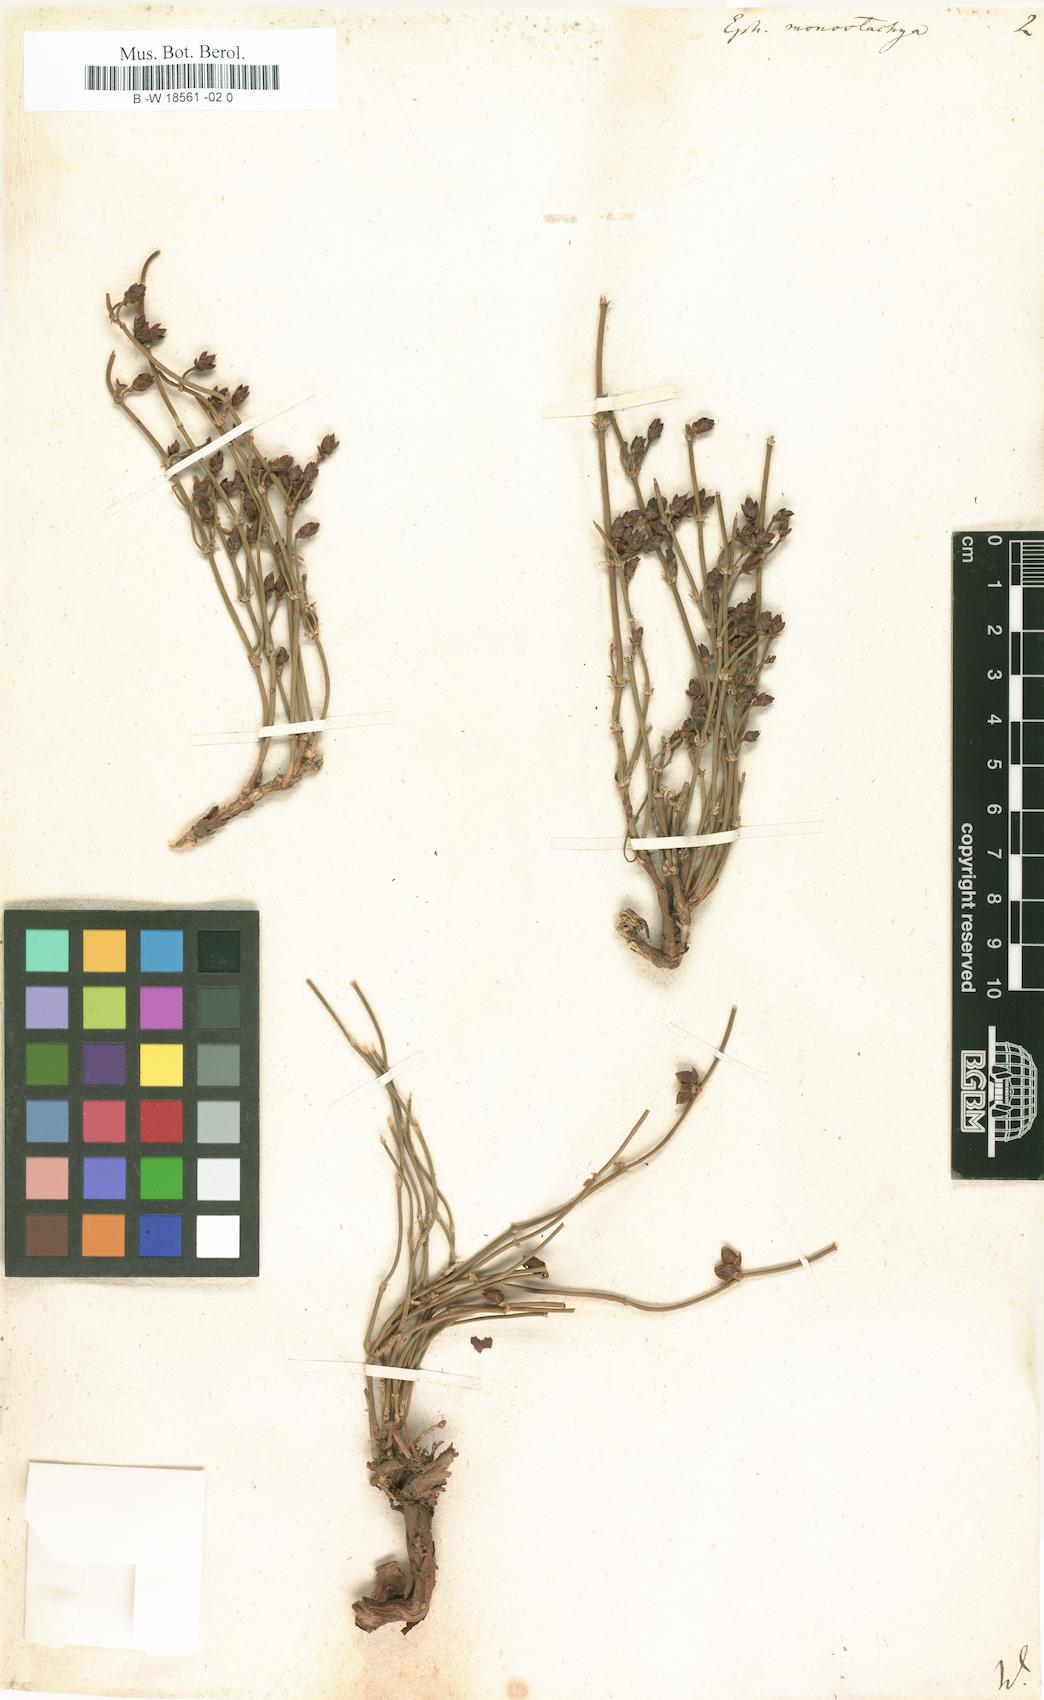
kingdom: Plantae
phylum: Tracheophyta
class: Gnetopsida
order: Ephedrales
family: Ephedraceae
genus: Ephedra
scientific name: Ephedra monostachya
